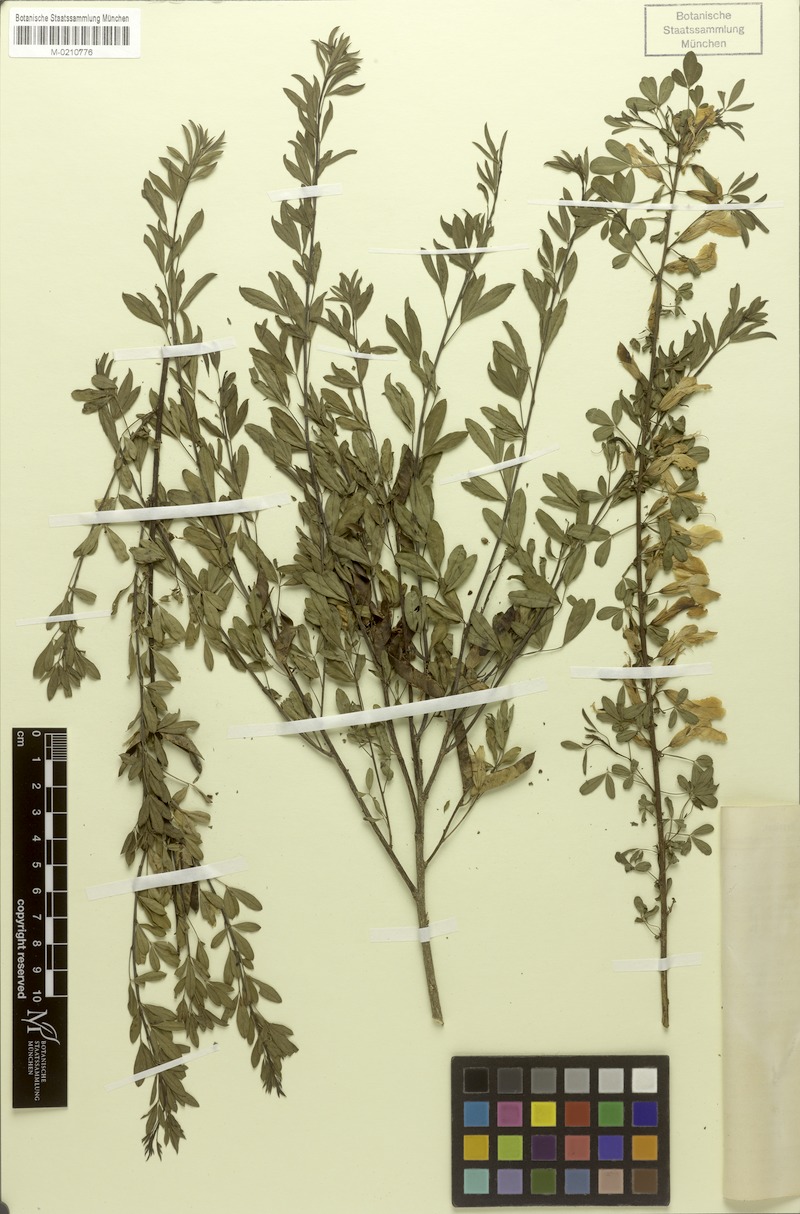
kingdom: Plantae
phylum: Tracheophyta
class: Magnoliopsida
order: Fabales
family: Fabaceae
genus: Chamaecytisus
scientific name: Chamaecytisus ruthenicus
